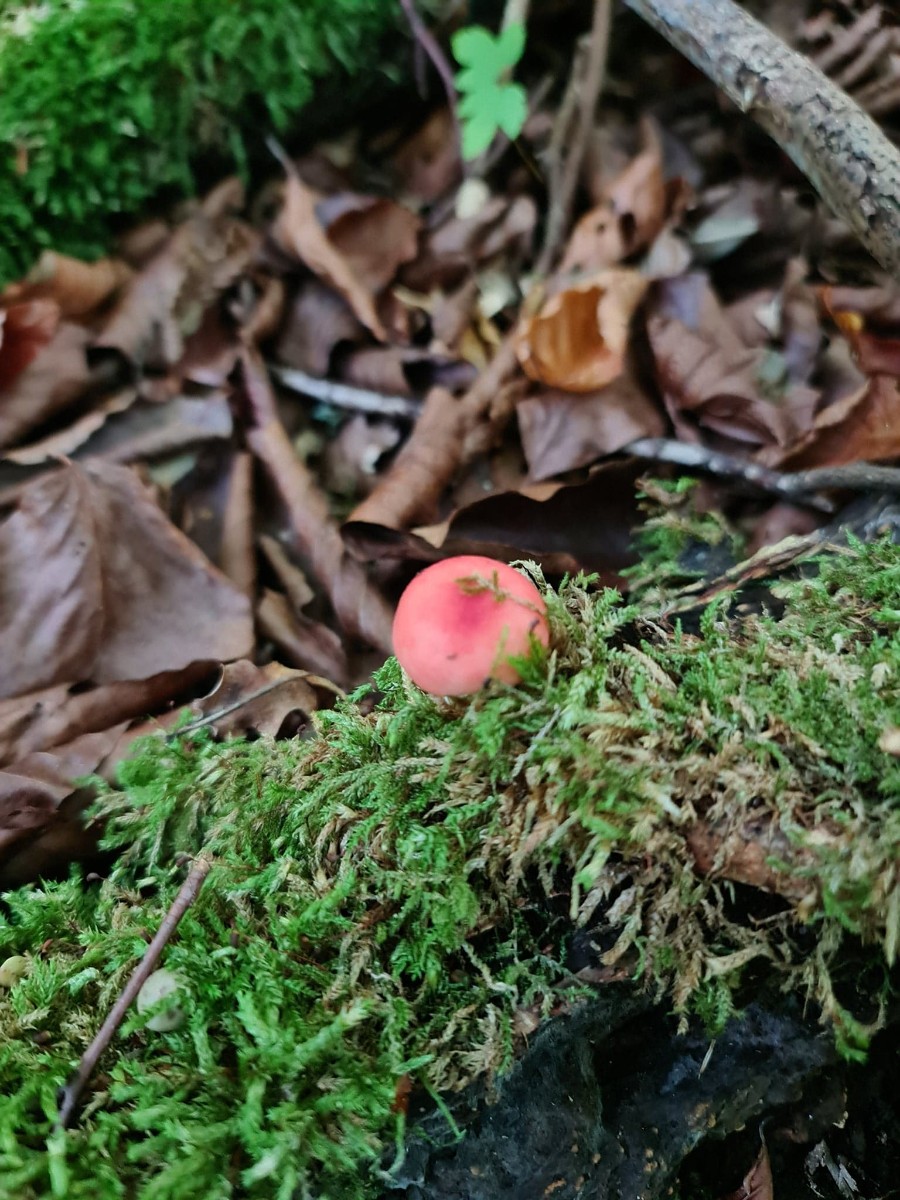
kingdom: Fungi
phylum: Basidiomycota
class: Agaricomycetes
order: Russulales
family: Russulaceae
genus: Russula
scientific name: Russula nobilis
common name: lille gift-skørhat
